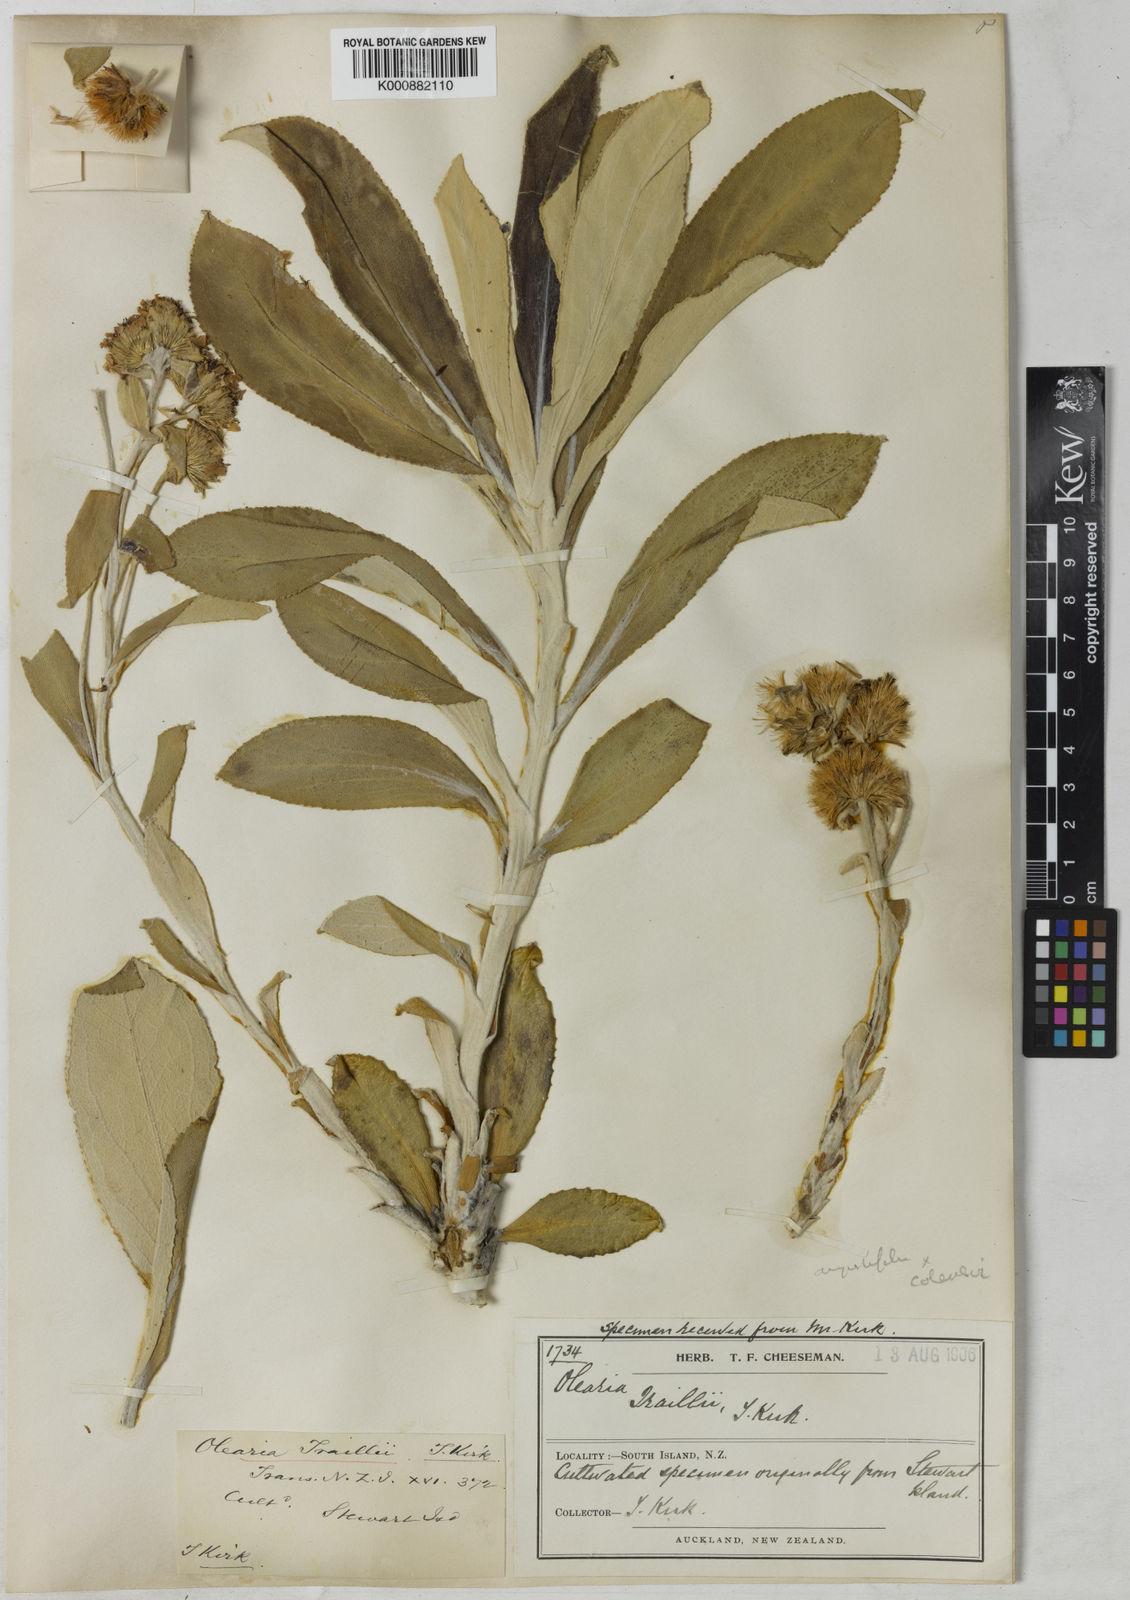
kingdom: Plantae
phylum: Tracheophyta
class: Magnoliopsida
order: Asterales
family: Asteraceae
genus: Macrolearia
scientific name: Macrolearia traillii
